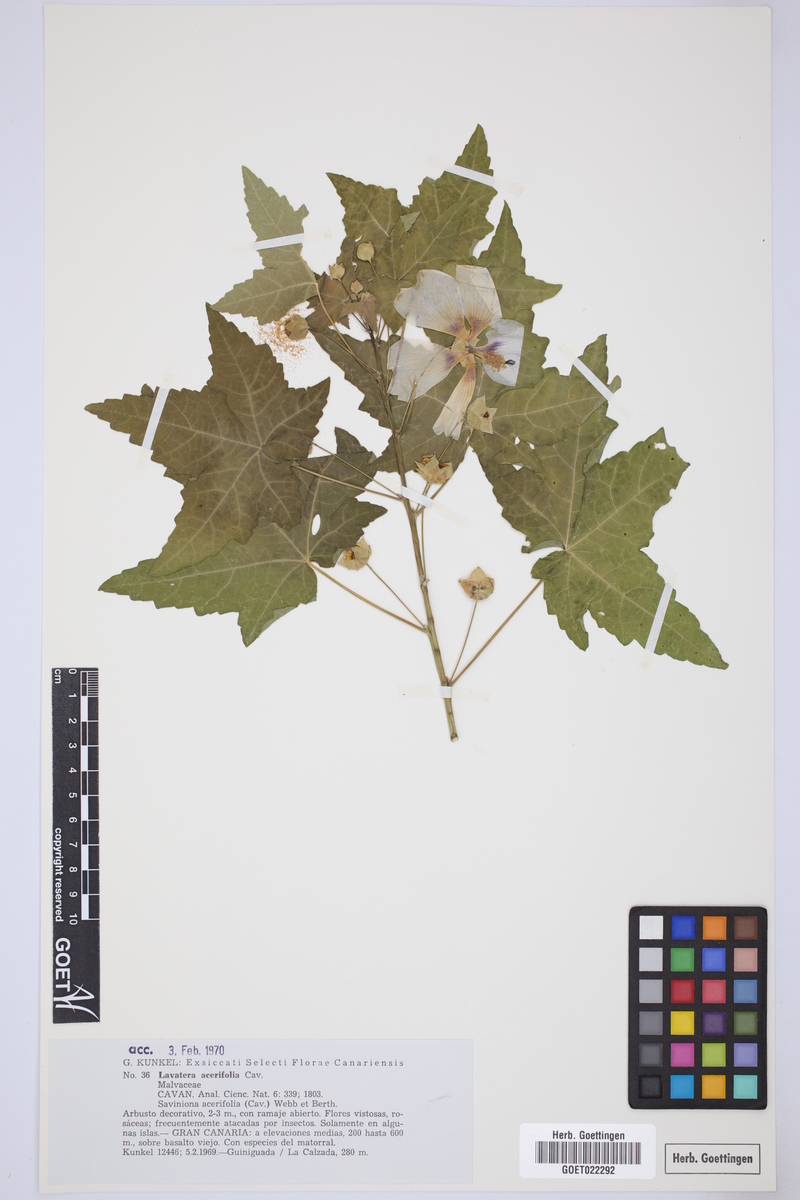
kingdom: Plantae
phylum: Tracheophyta
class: Magnoliopsida
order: Malvales
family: Malvaceae
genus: Malva
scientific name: Malva acerifolia
